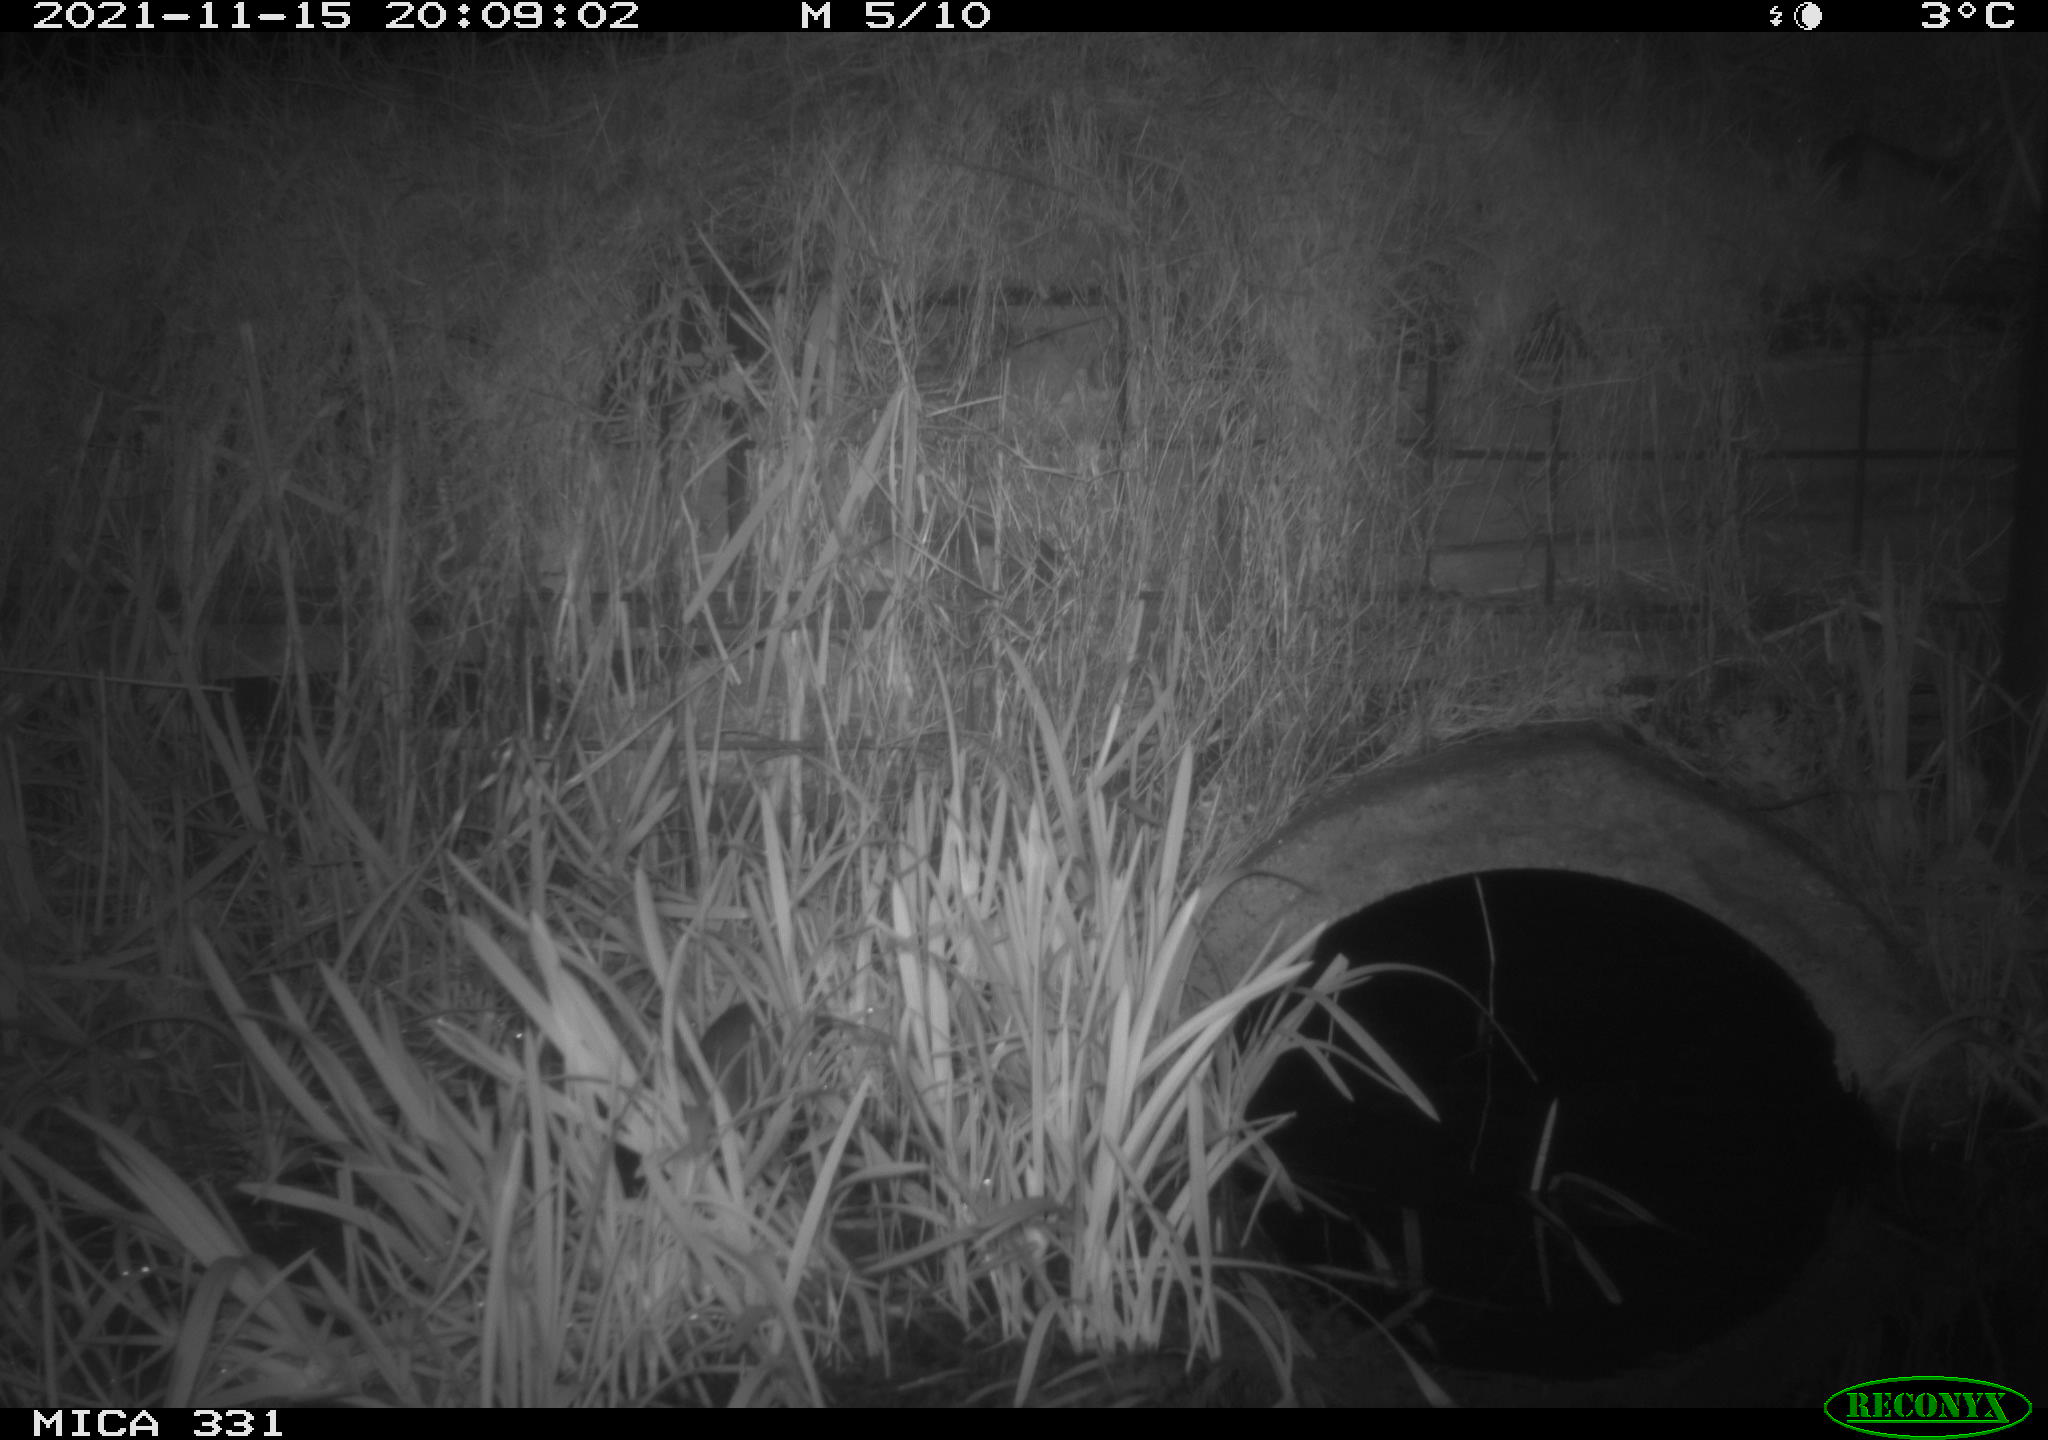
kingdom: Animalia
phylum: Chordata
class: Mammalia
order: Rodentia
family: Muridae
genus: Rattus
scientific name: Rattus norvegicus
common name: Brown rat
